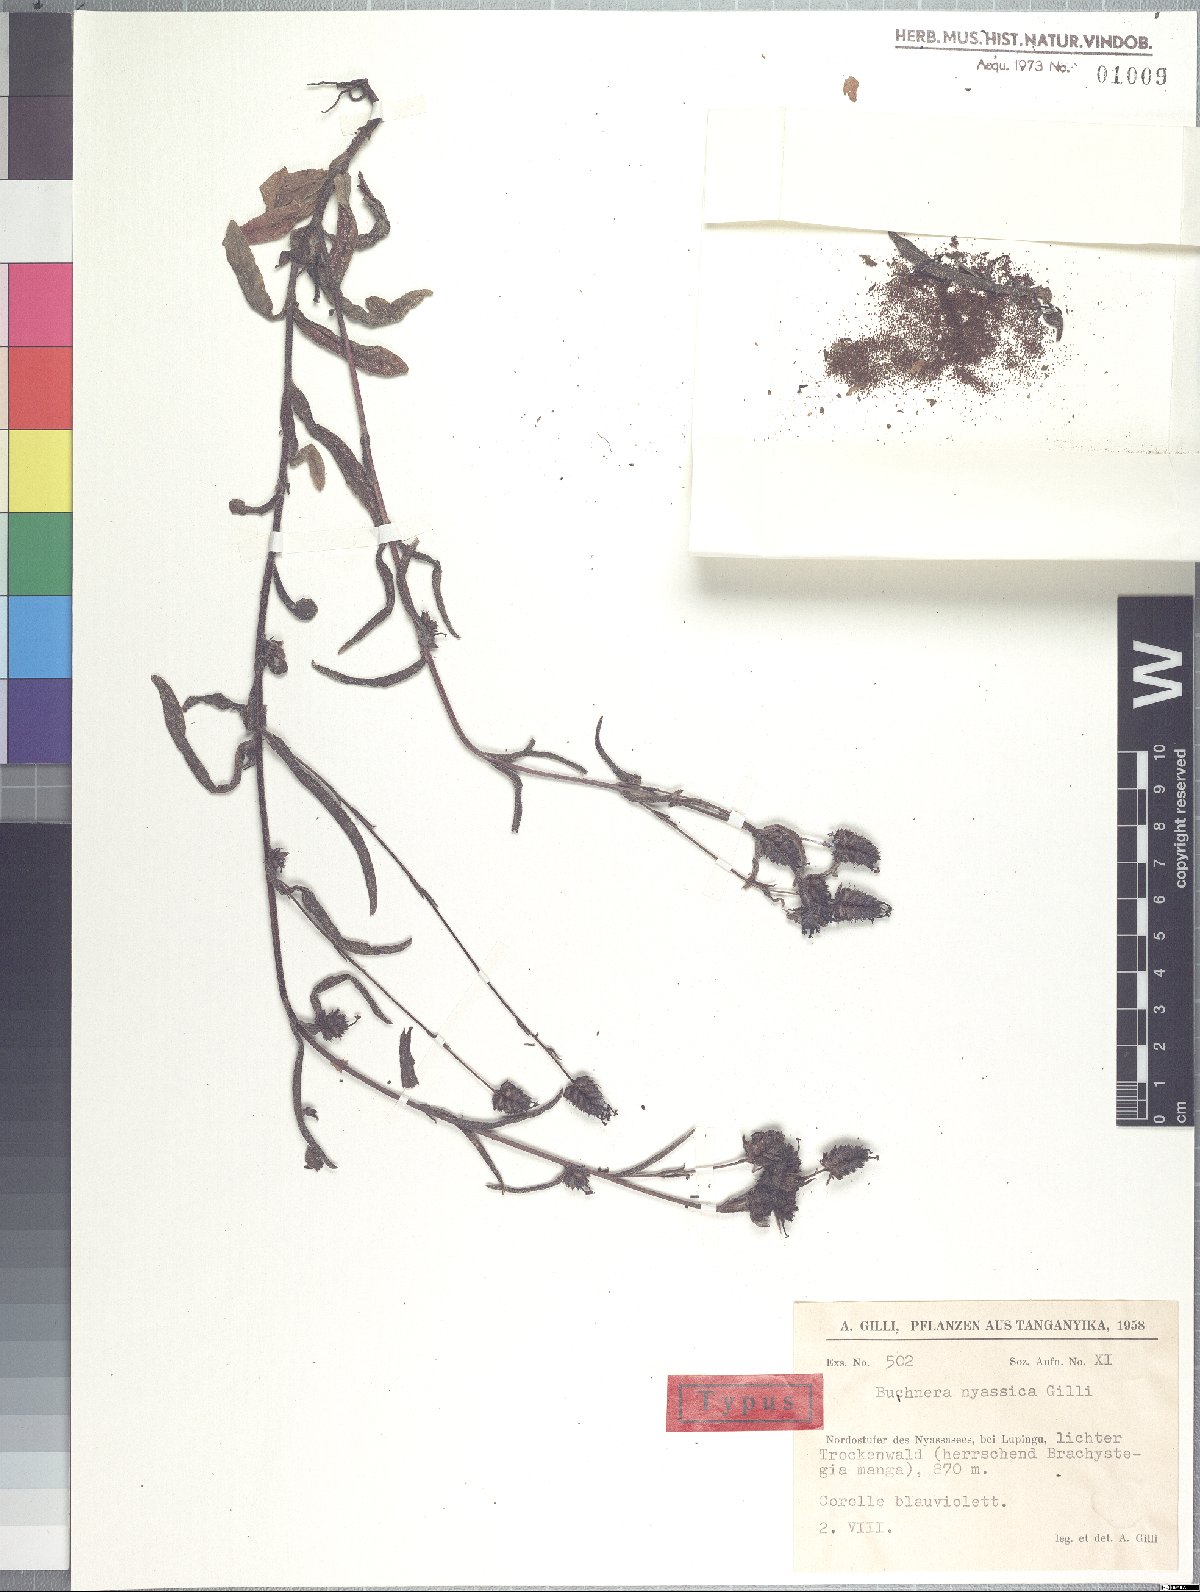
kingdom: Plantae
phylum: Tracheophyta
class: Magnoliopsida
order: Lamiales
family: Orobanchaceae
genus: Buchnera
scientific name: Buchnera nyassica
